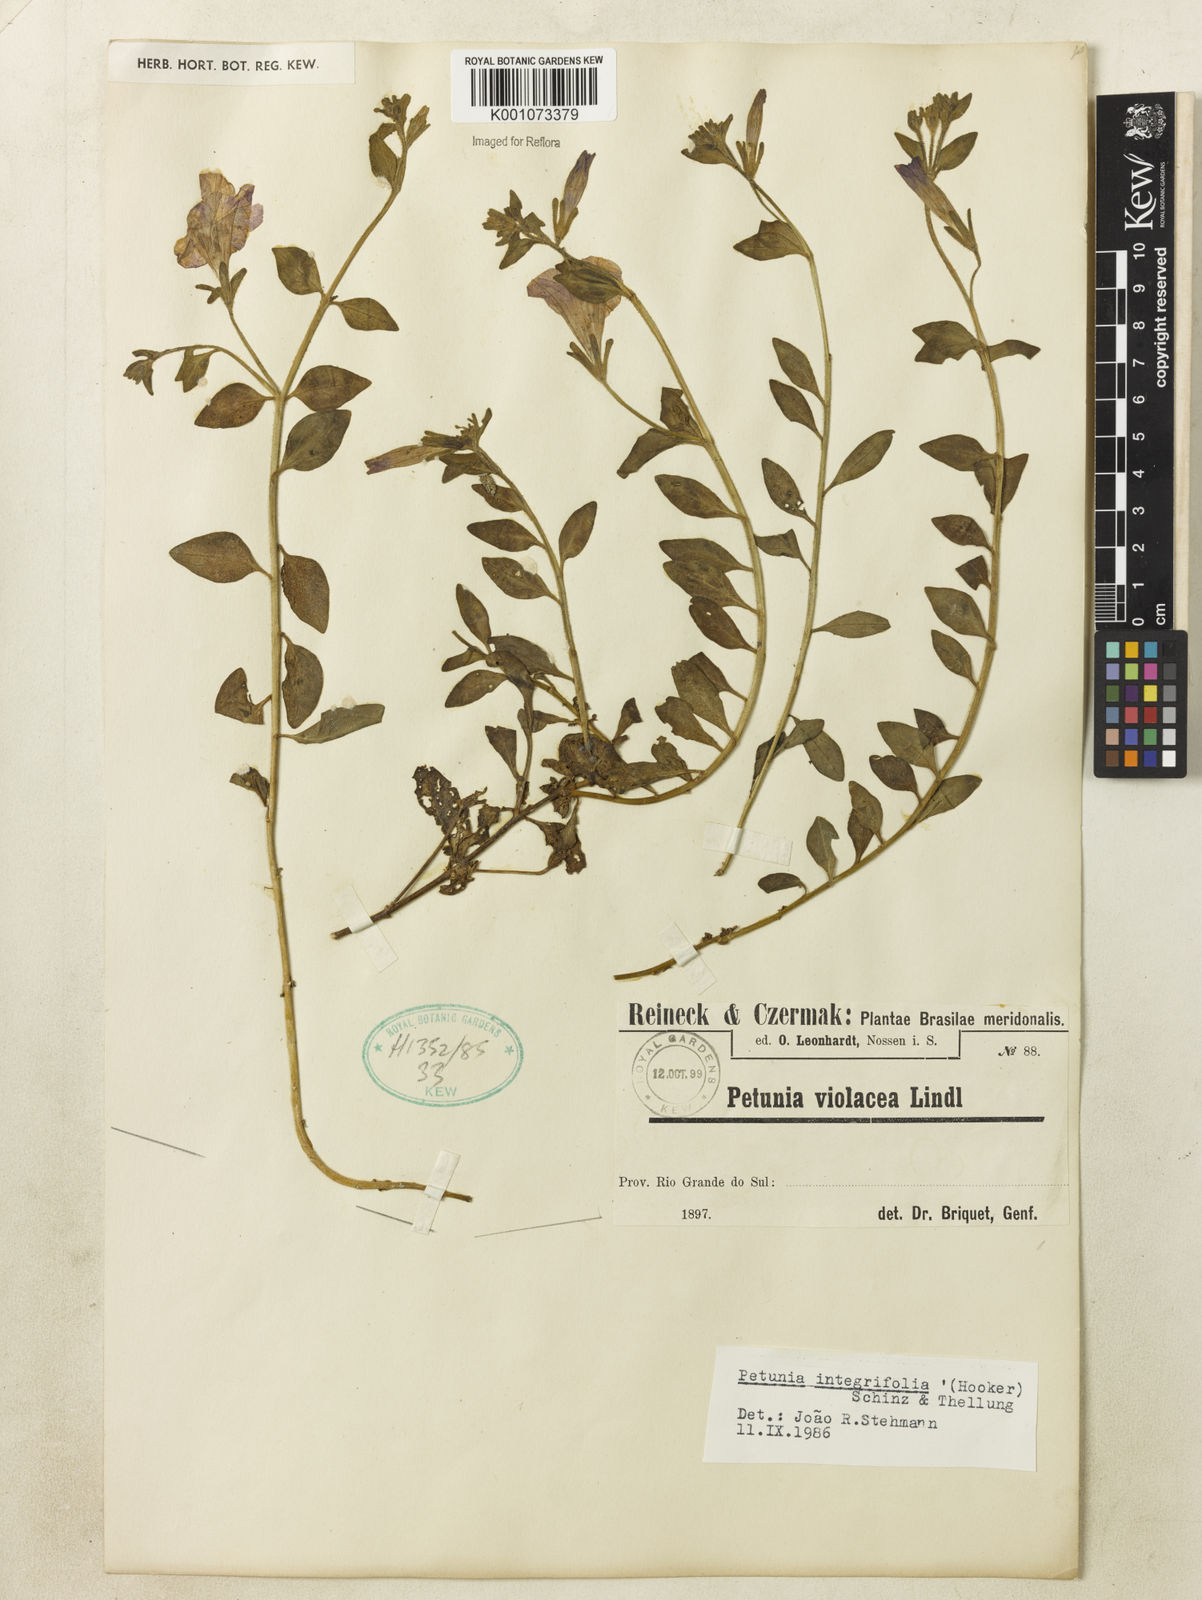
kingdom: Plantae
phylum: Tracheophyta
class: Magnoliopsida
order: Solanales
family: Solanaceae
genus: Petunia
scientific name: Petunia integrifolia
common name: Violet-flower petunia
